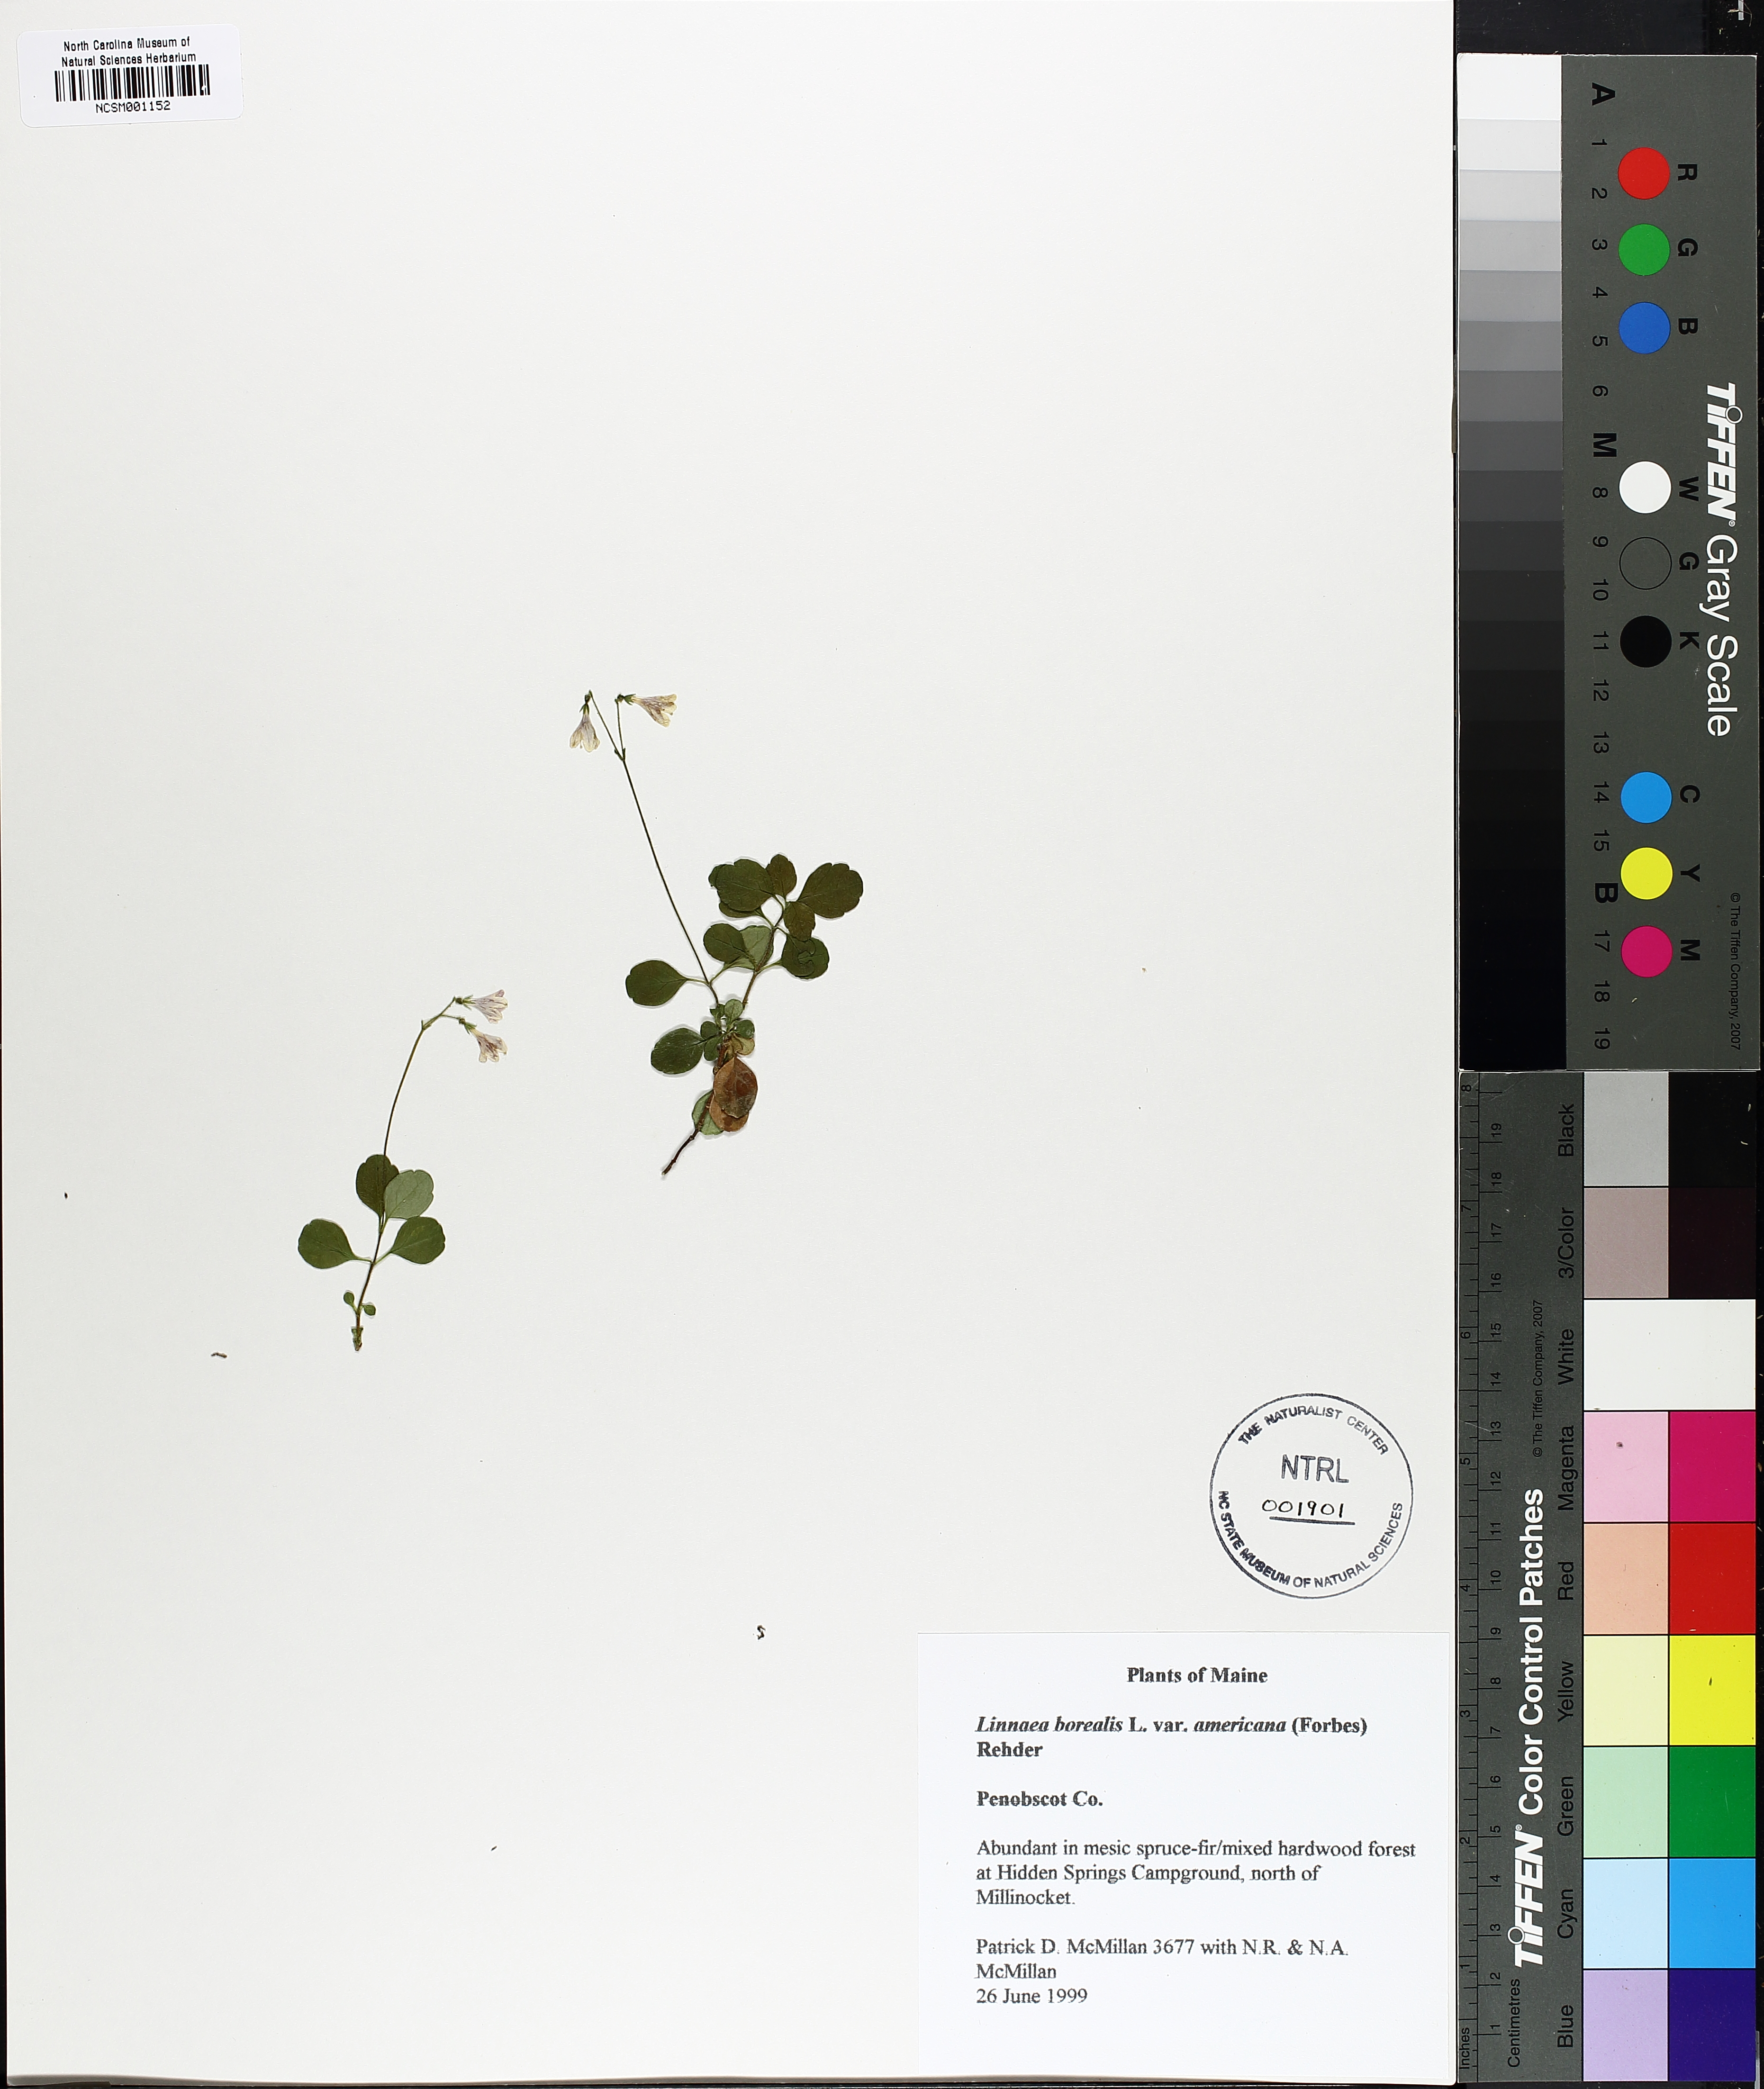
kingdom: Plantae
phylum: Tracheophyta
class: Magnoliopsida
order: Dipsacales
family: Caprifoliaceae
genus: Linnaea
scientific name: Linnaea borealis
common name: Twinflower
